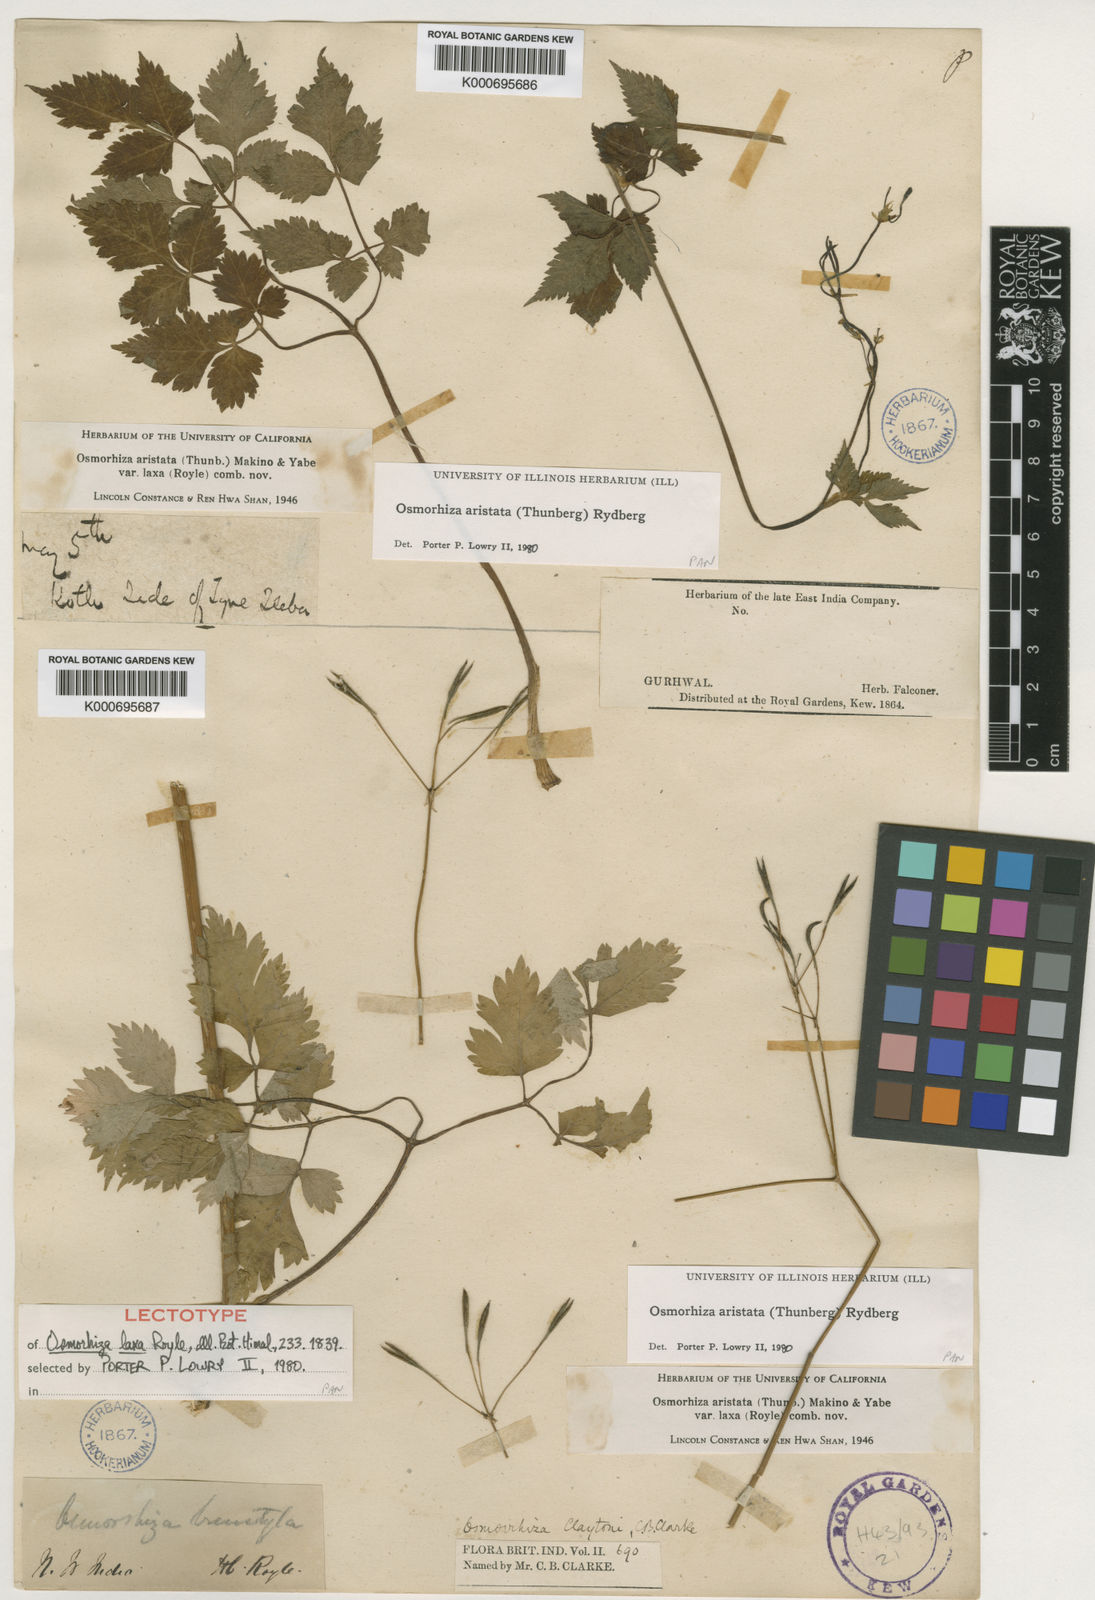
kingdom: Plantae
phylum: Tracheophyta
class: Magnoliopsida
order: Apiales
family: Apiaceae
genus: Osmorhiza
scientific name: Osmorhiza
